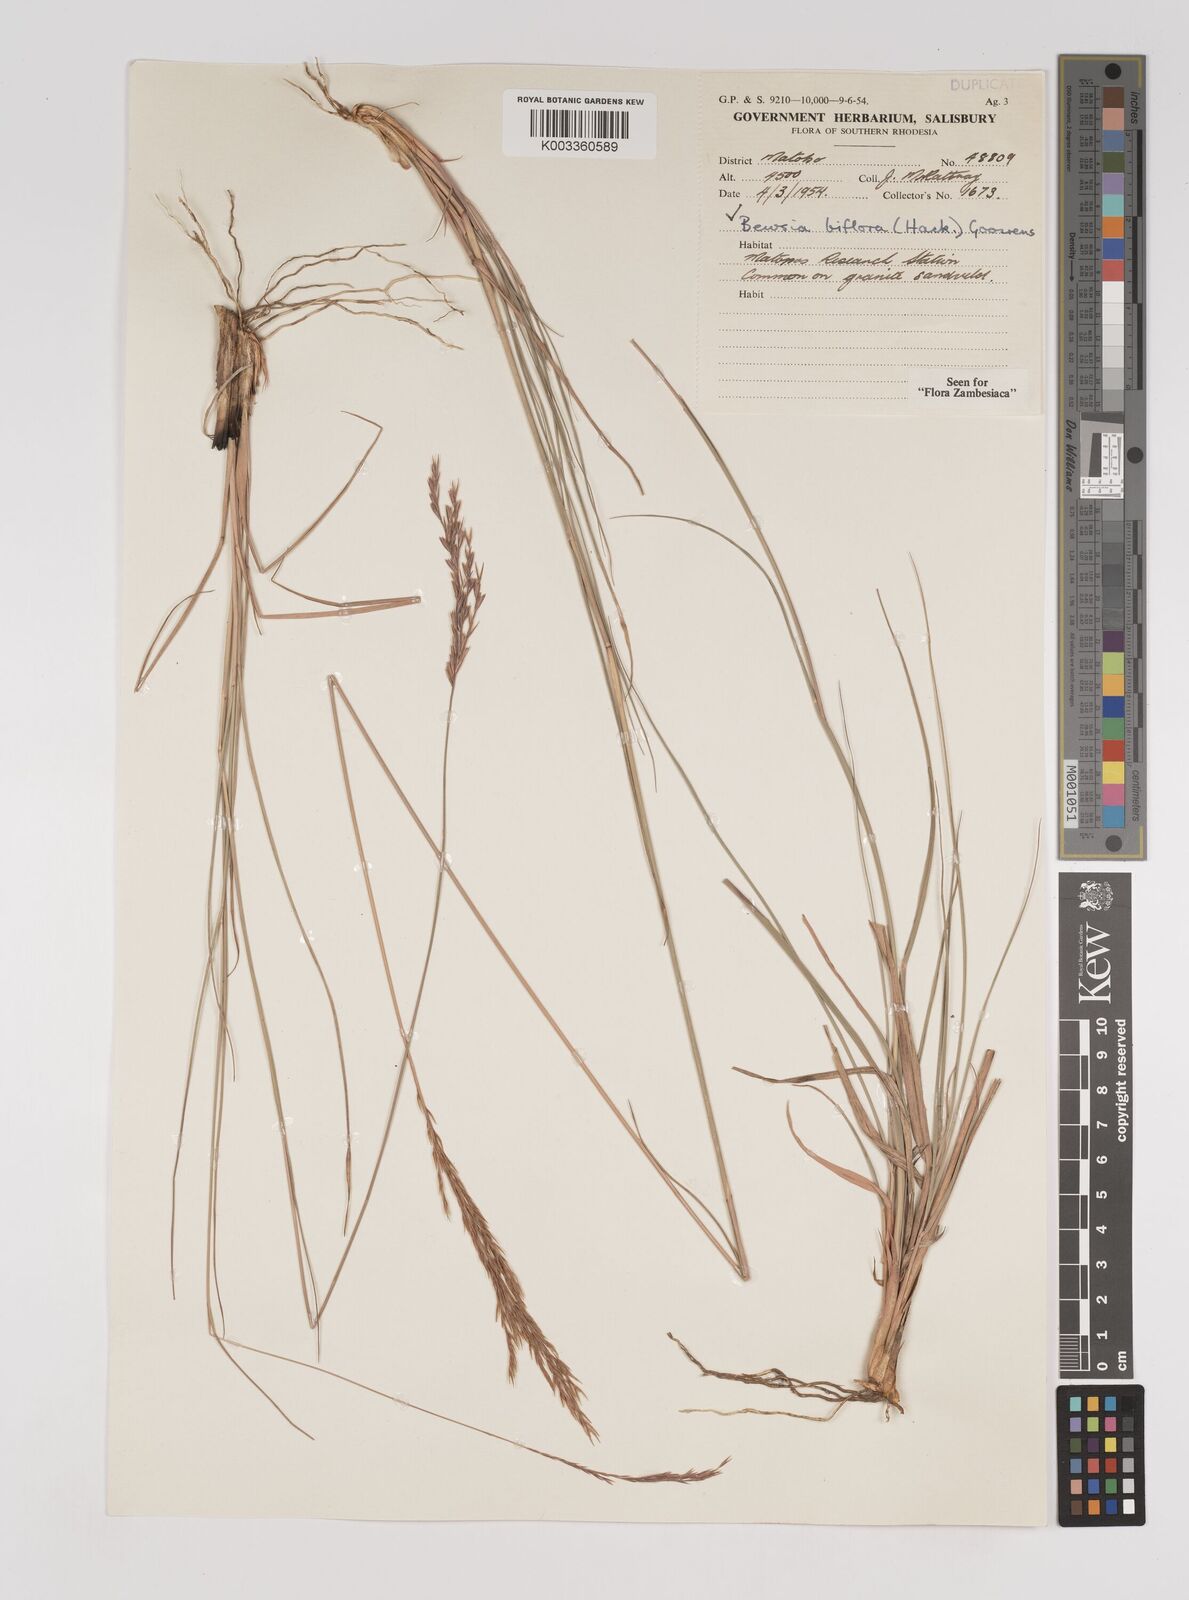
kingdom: Plantae
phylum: Tracheophyta
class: Liliopsida
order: Poales
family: Poaceae
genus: Bewsia
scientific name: Bewsia biflora
